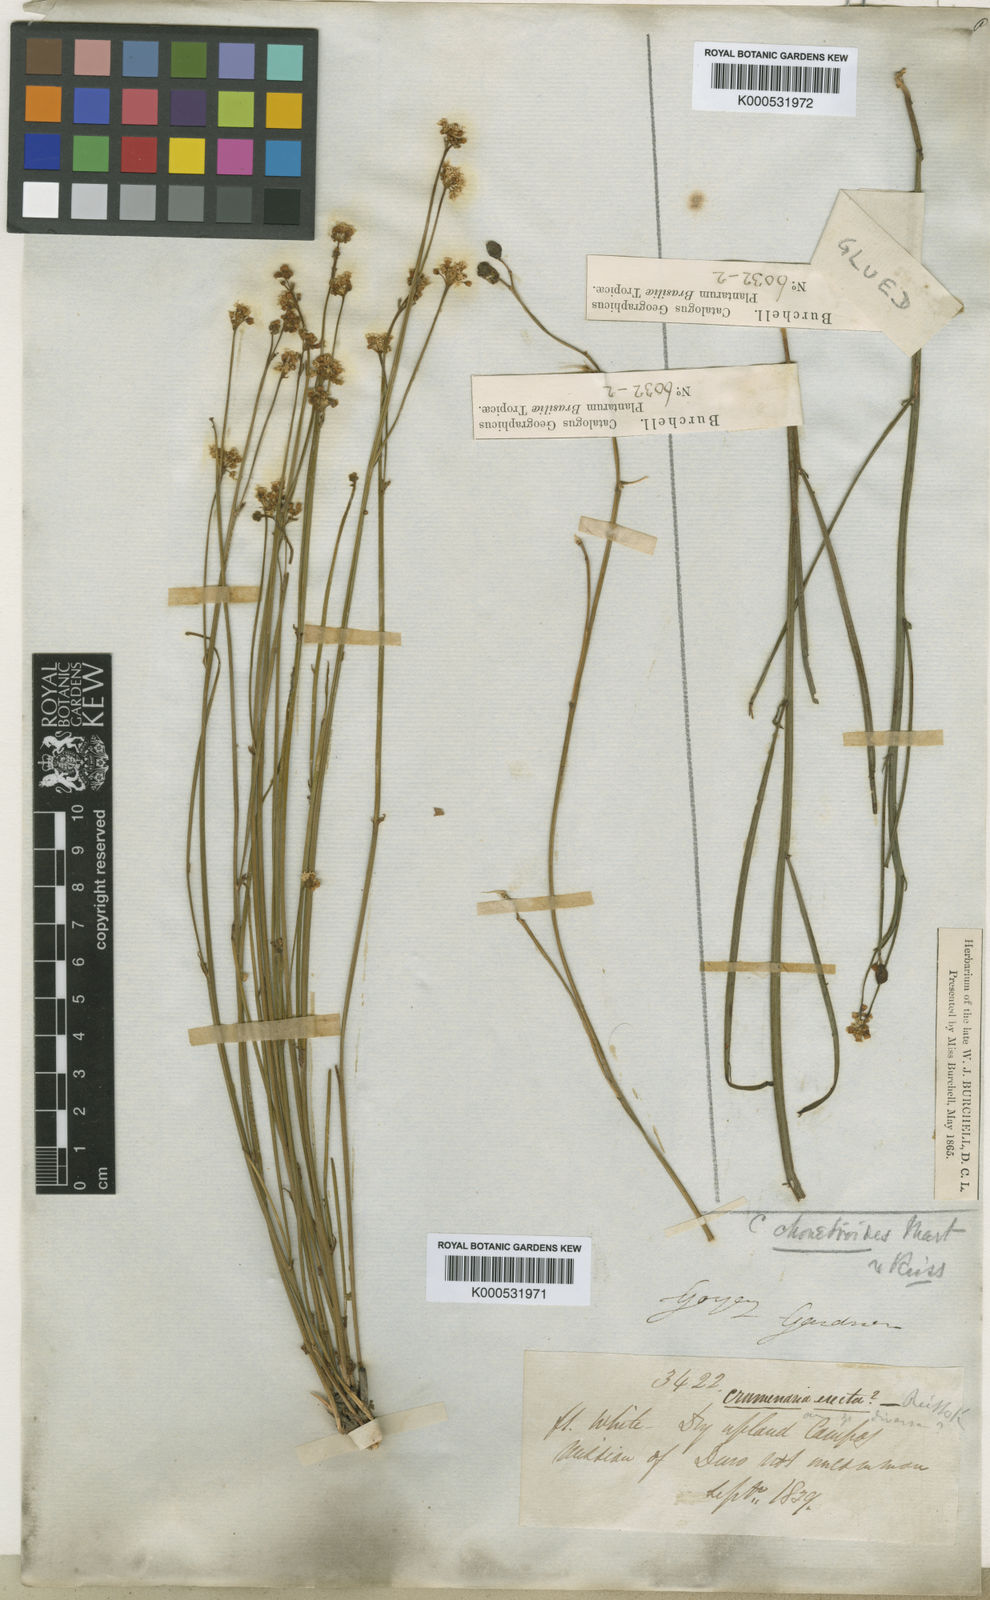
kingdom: Plantae
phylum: Tracheophyta
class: Magnoliopsida
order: Rosales
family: Rhamnaceae
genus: Crumenaria
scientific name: Crumenaria choretroides
